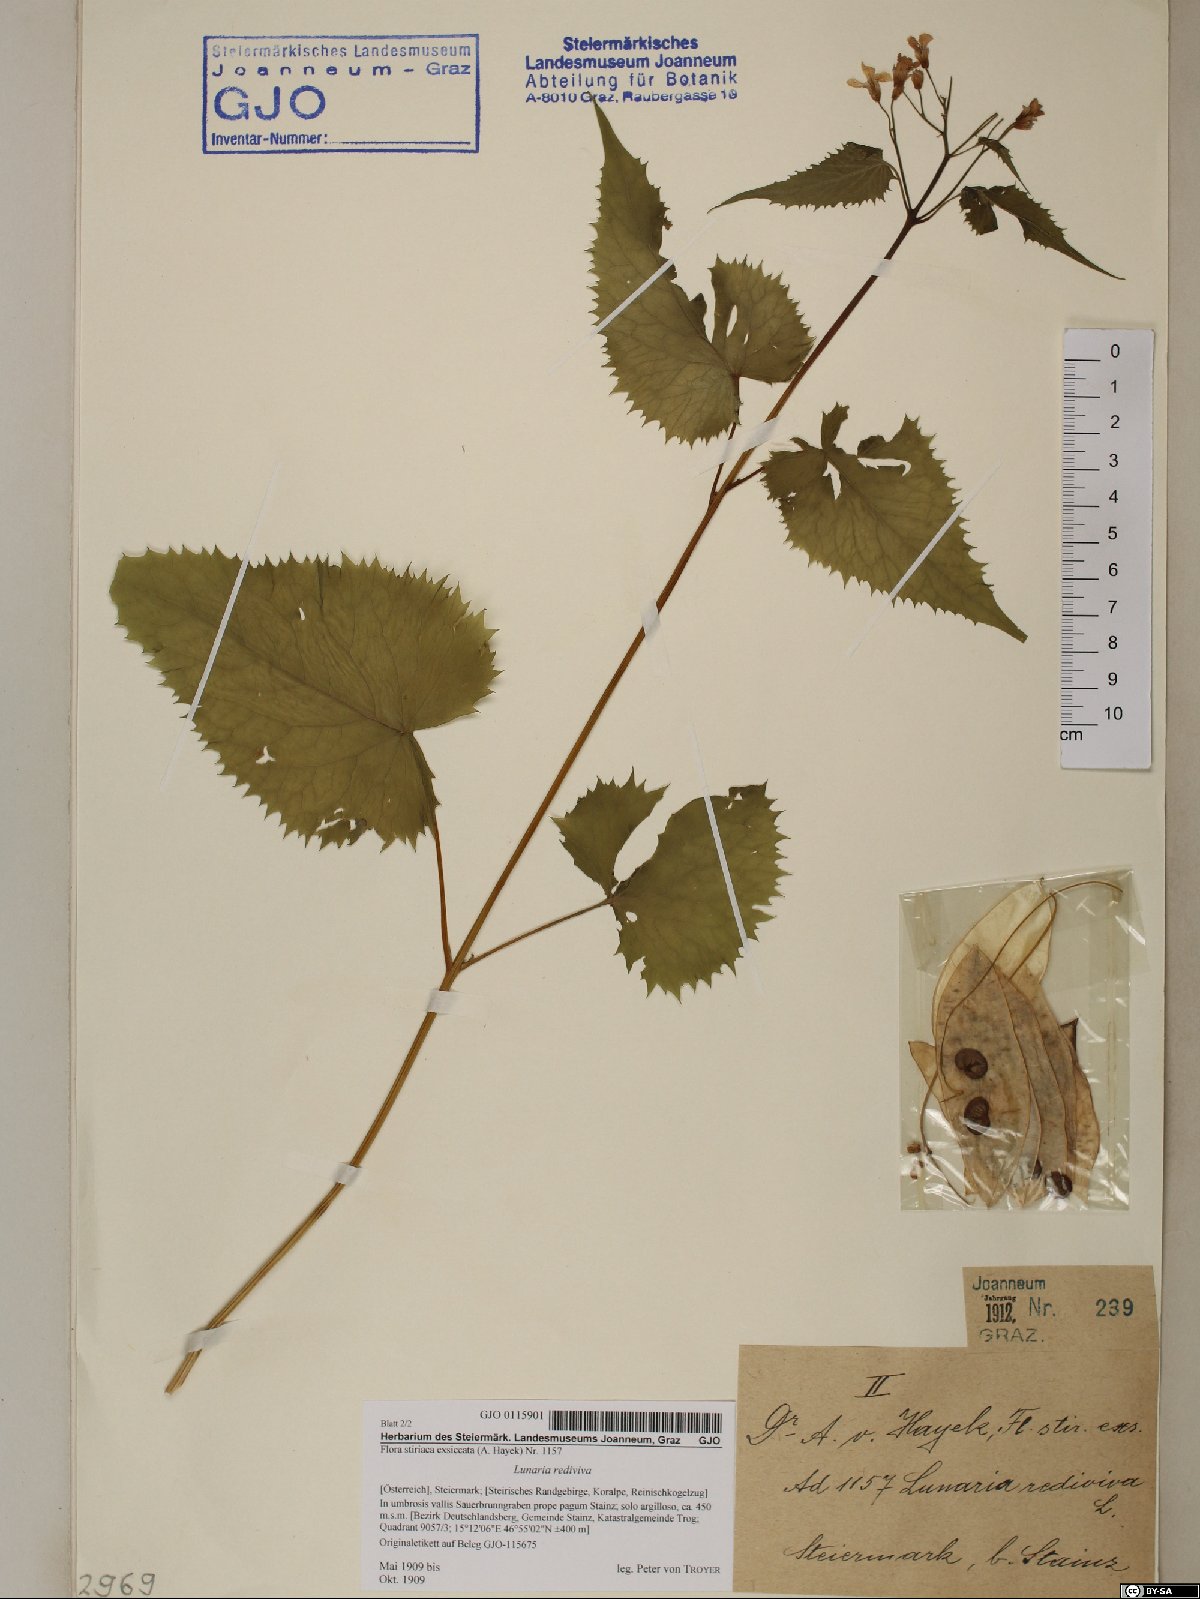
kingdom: Plantae
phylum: Tracheophyta
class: Magnoliopsida
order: Brassicales
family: Brassicaceae
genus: Lunaria
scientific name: Lunaria rediviva
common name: Perennial honesty
